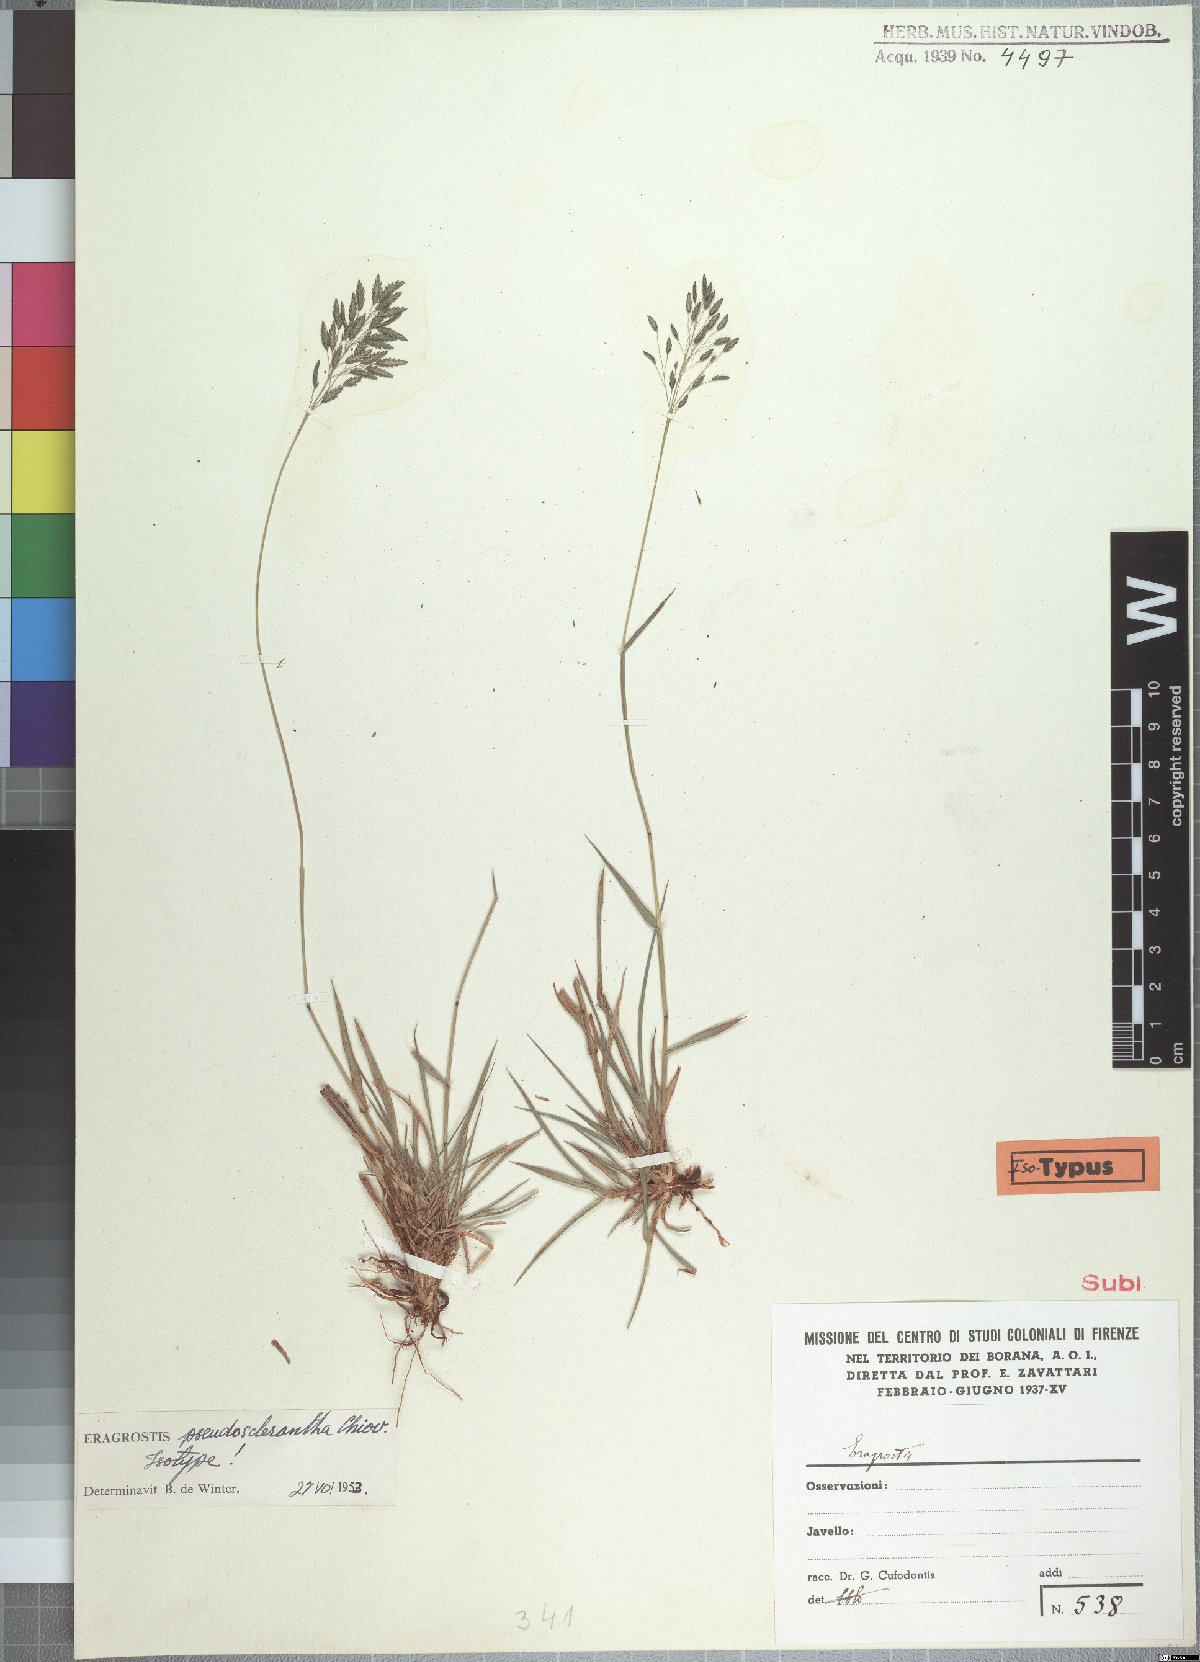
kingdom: Plantae
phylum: Tracheophyta
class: Liliopsida
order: Poales
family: Poaceae
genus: Eragrostis
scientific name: Eragrostis patentipilosa
